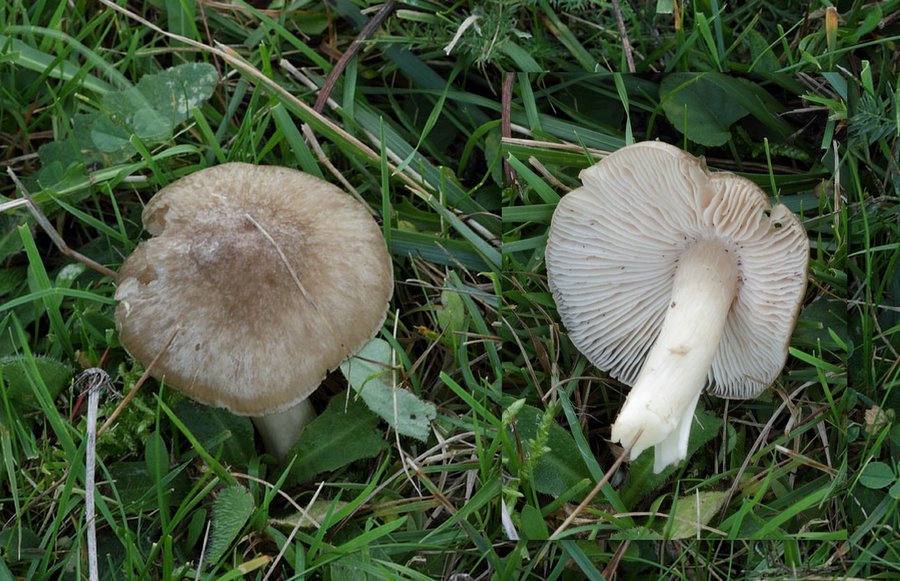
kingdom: Fungi
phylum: Basidiomycota
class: Agaricomycetes
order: Agaricales
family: Entolomataceae
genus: Entoloma
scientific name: Entoloma prunuloides
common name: mel-rødblad
